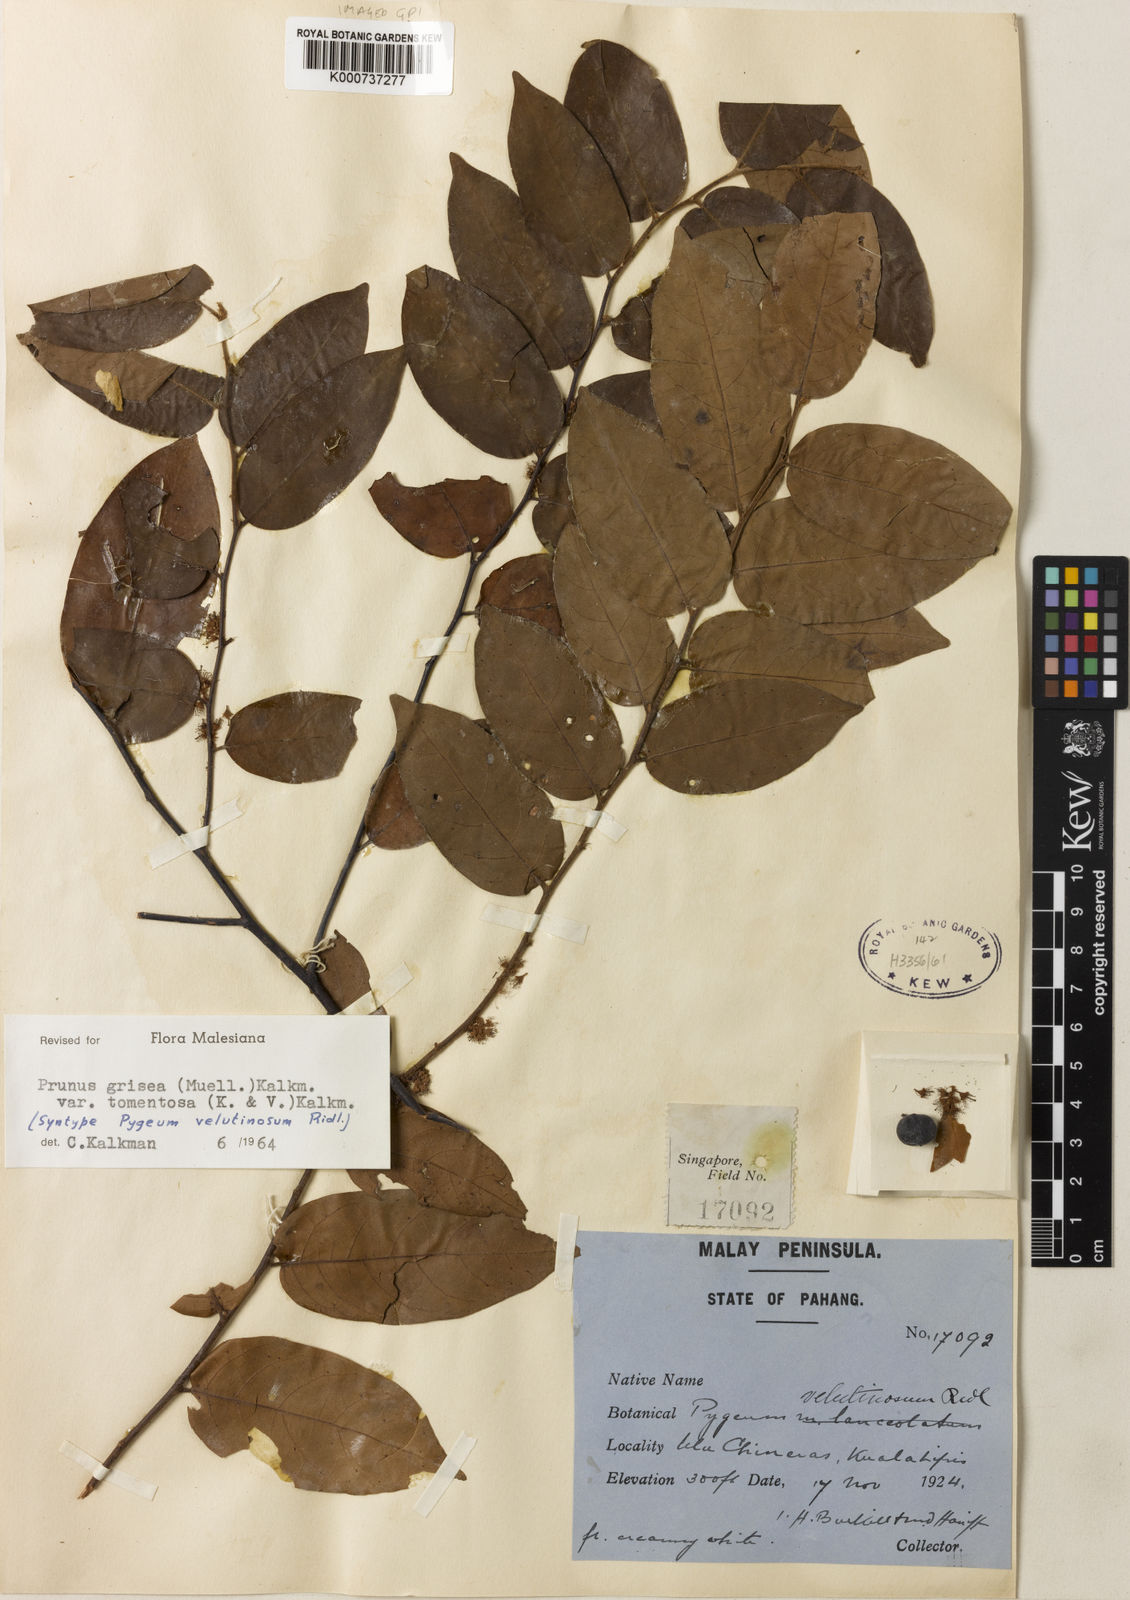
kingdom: Plantae
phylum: Tracheophyta
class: Magnoliopsida
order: Rosales
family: Rosaceae
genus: Prunus
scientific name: Prunus
